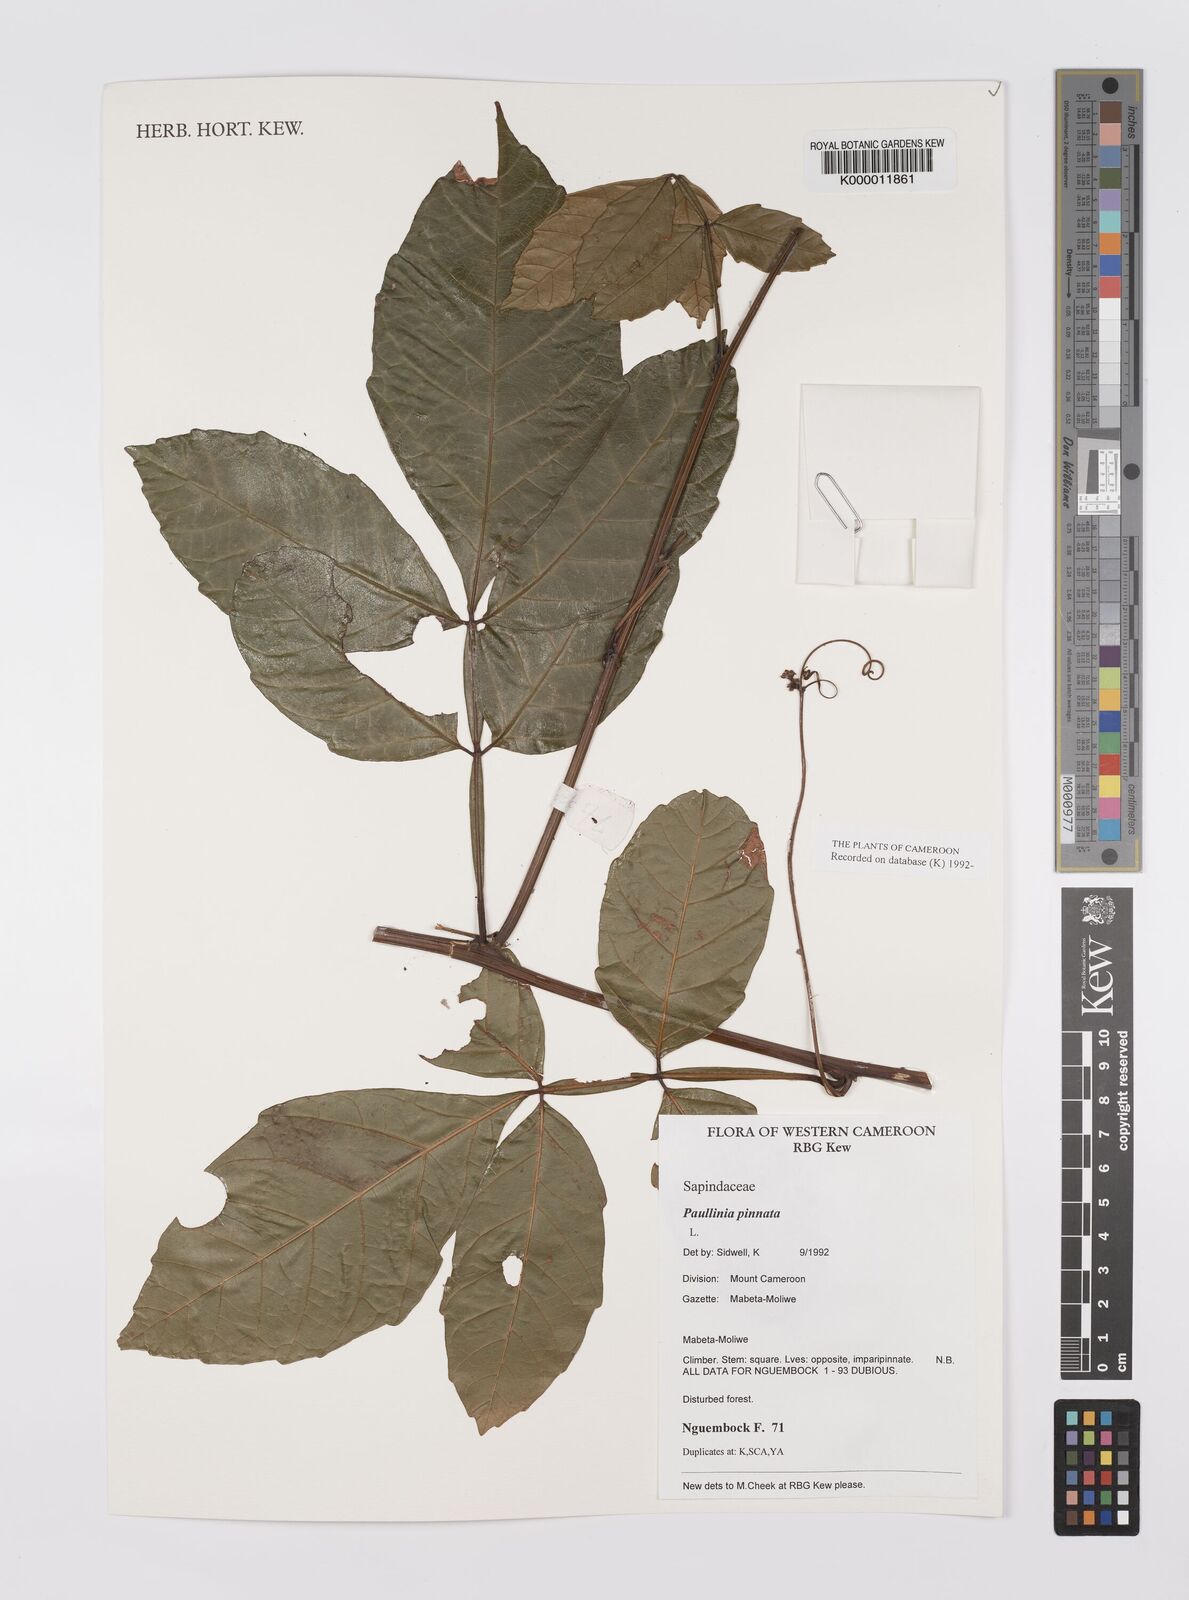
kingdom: Plantae
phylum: Tracheophyta
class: Magnoliopsida
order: Sapindales
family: Sapindaceae
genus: Paullinia
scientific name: Paullinia pinnata
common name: Barbasco
